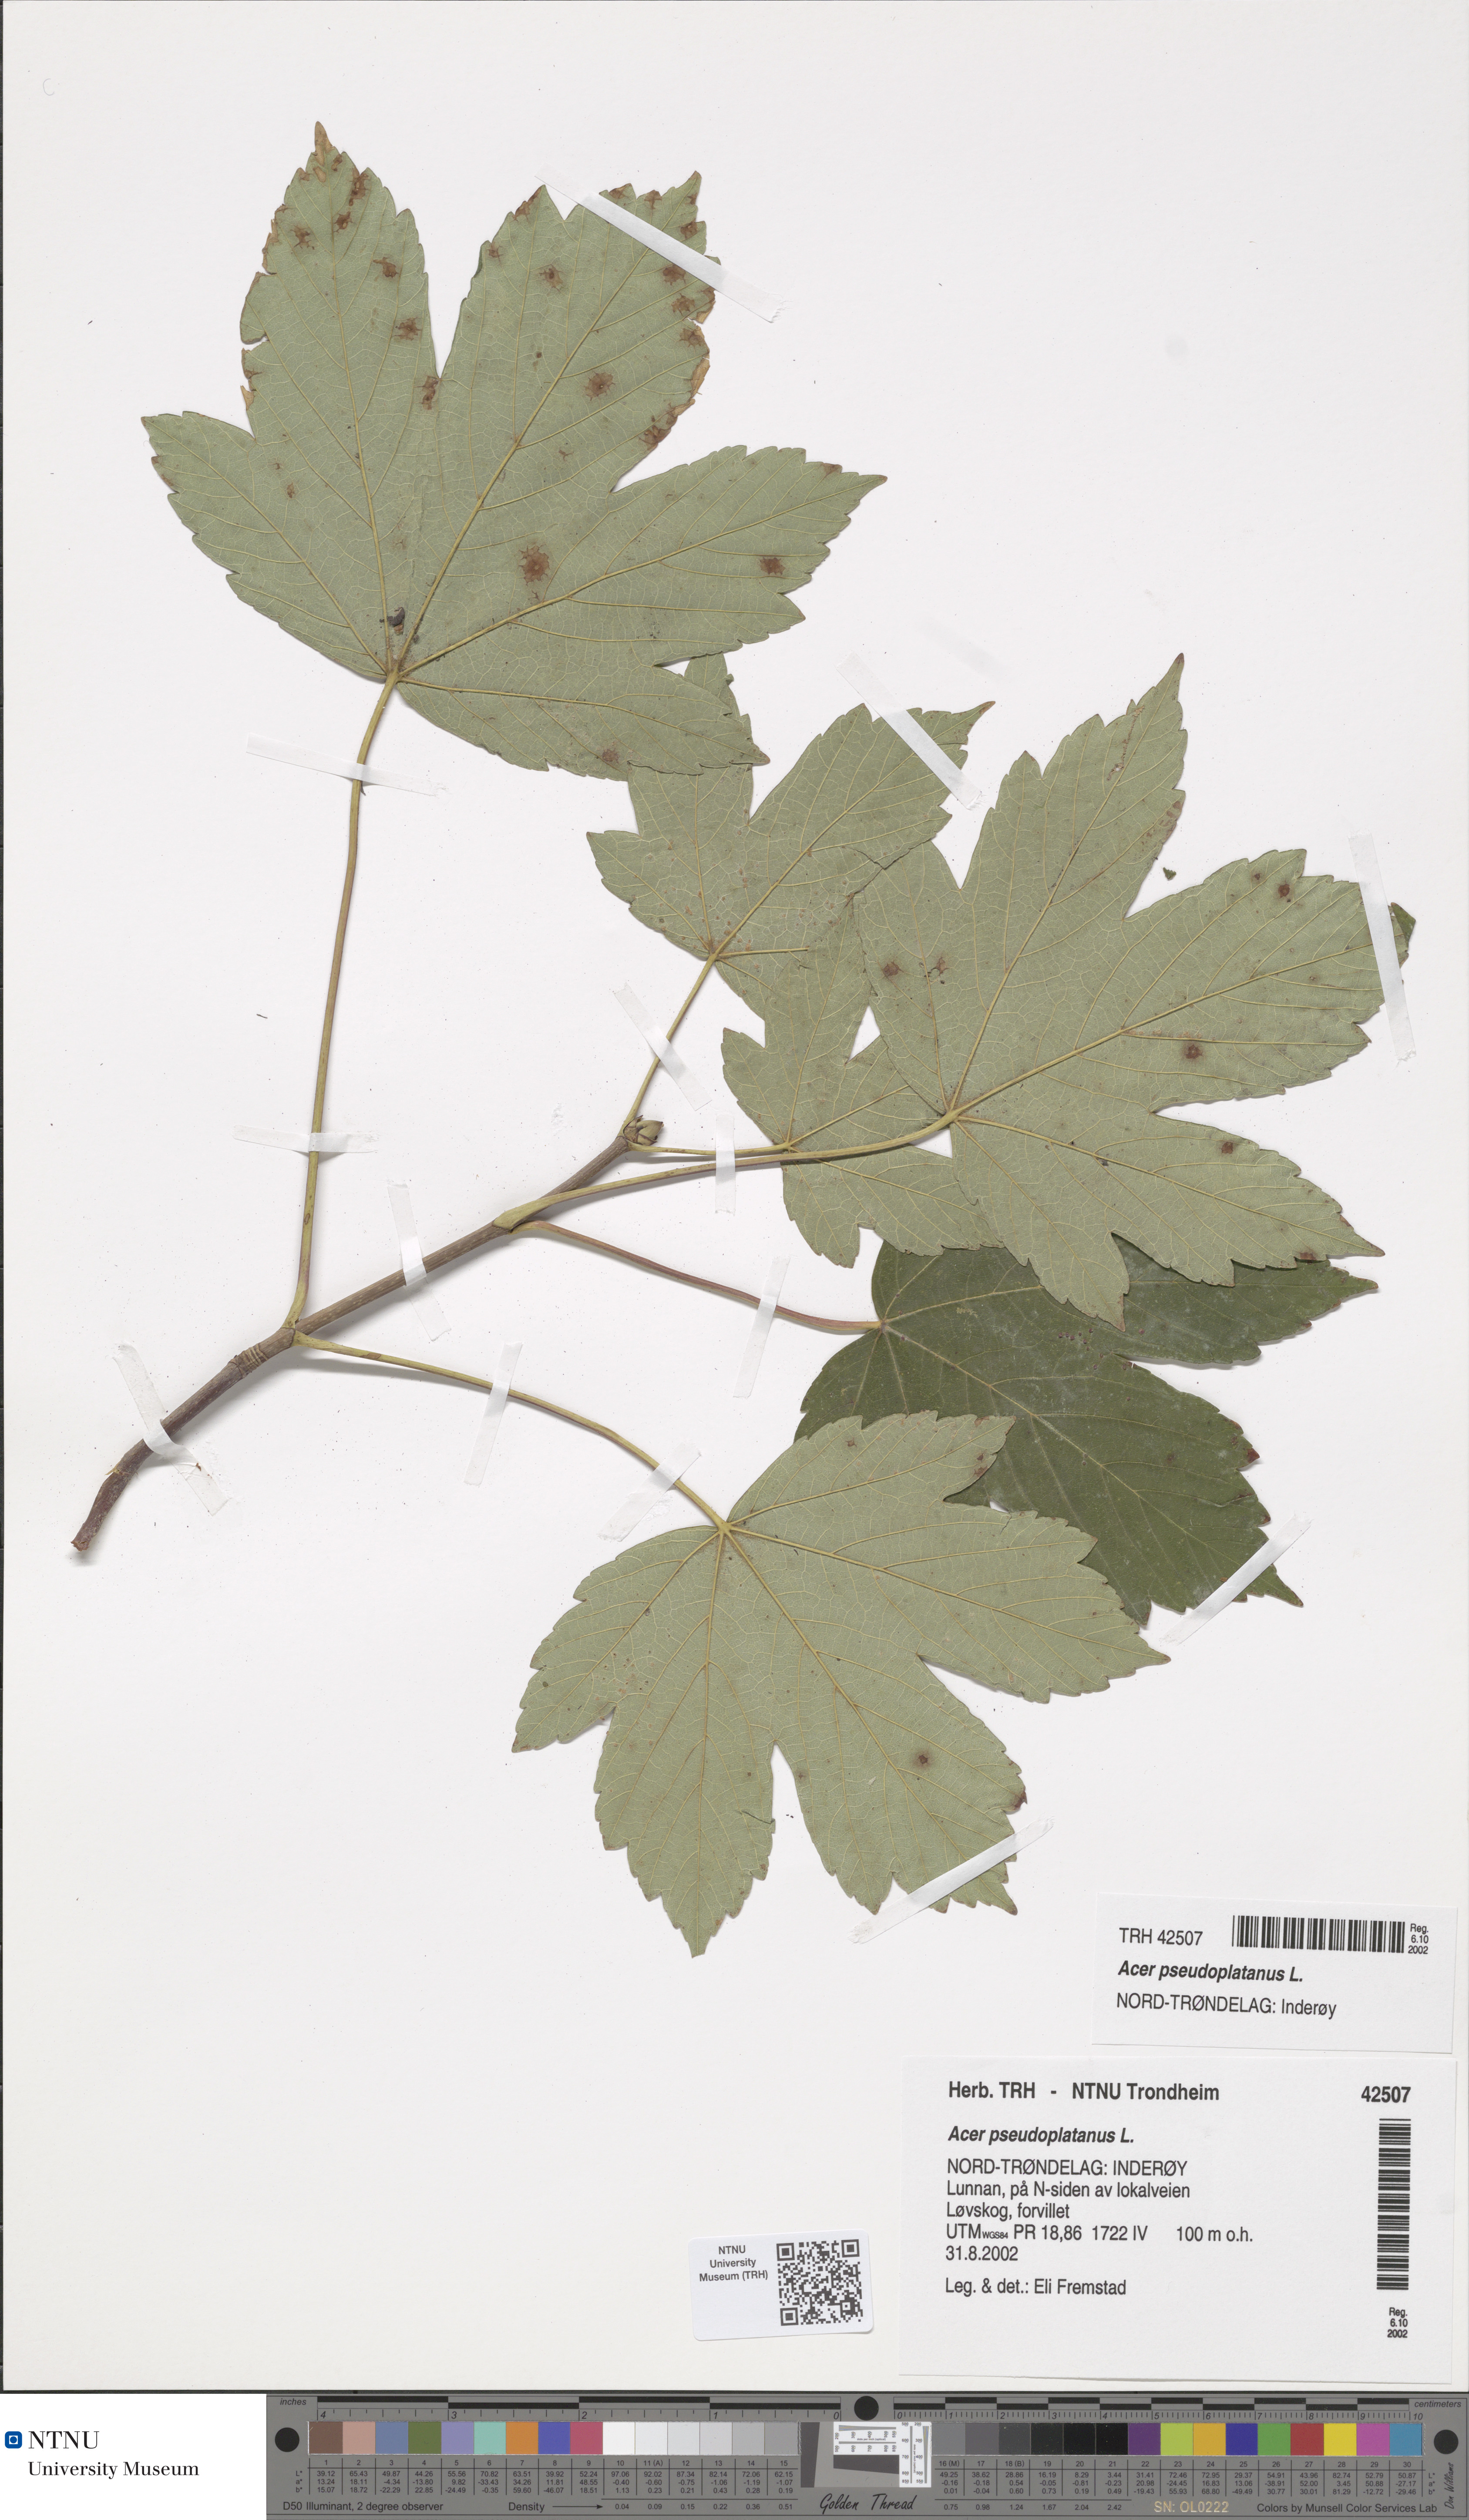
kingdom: Plantae
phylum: Tracheophyta
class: Magnoliopsida
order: Sapindales
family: Sapindaceae
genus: Acer
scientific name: Acer pseudoplatanus
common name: Sycamore
